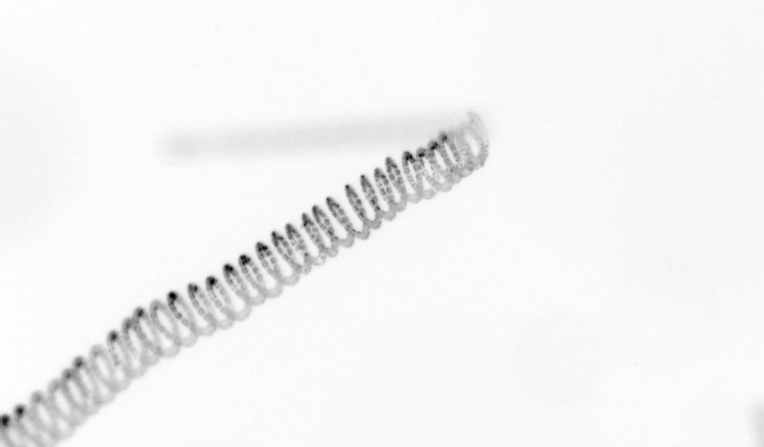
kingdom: Chromista
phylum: Ochrophyta
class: Bacillariophyceae
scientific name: Bacillariophyceae
